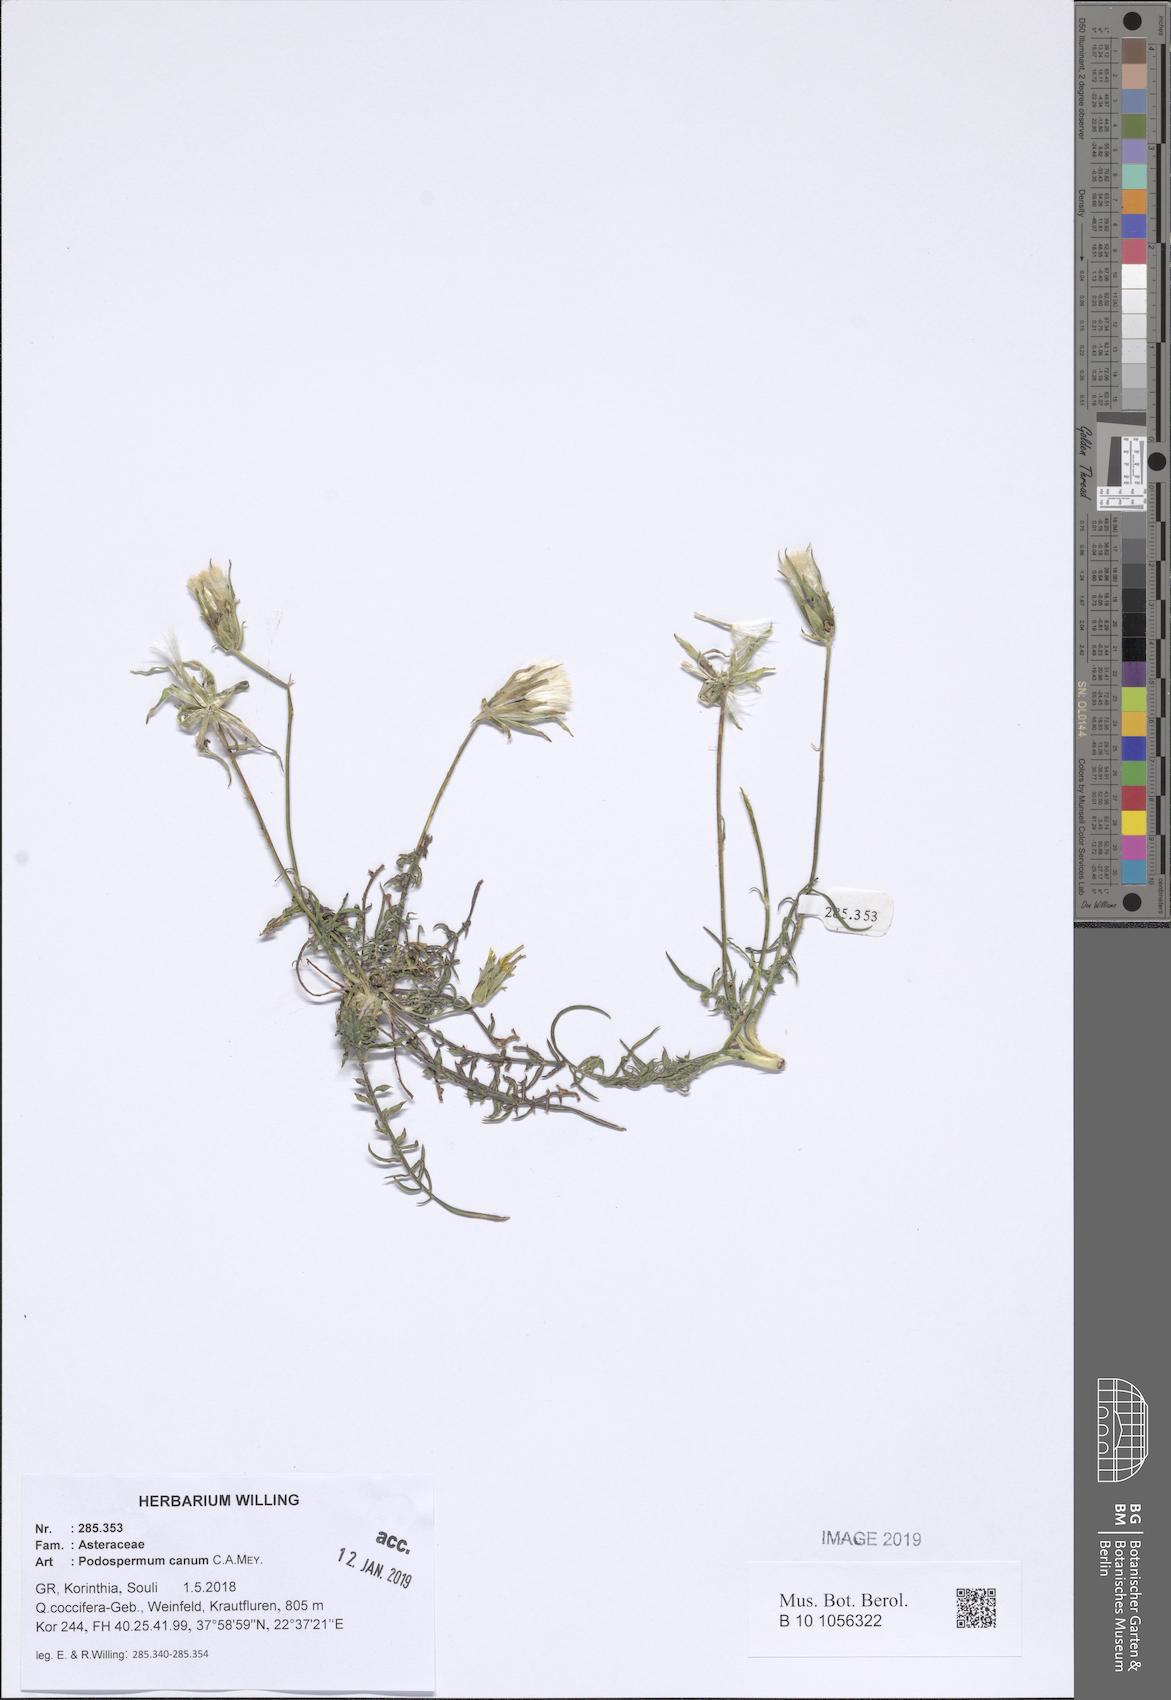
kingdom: Plantae
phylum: Tracheophyta
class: Magnoliopsida
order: Asterales
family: Asteraceae
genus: Scorzonera
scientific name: Scorzonera cana
